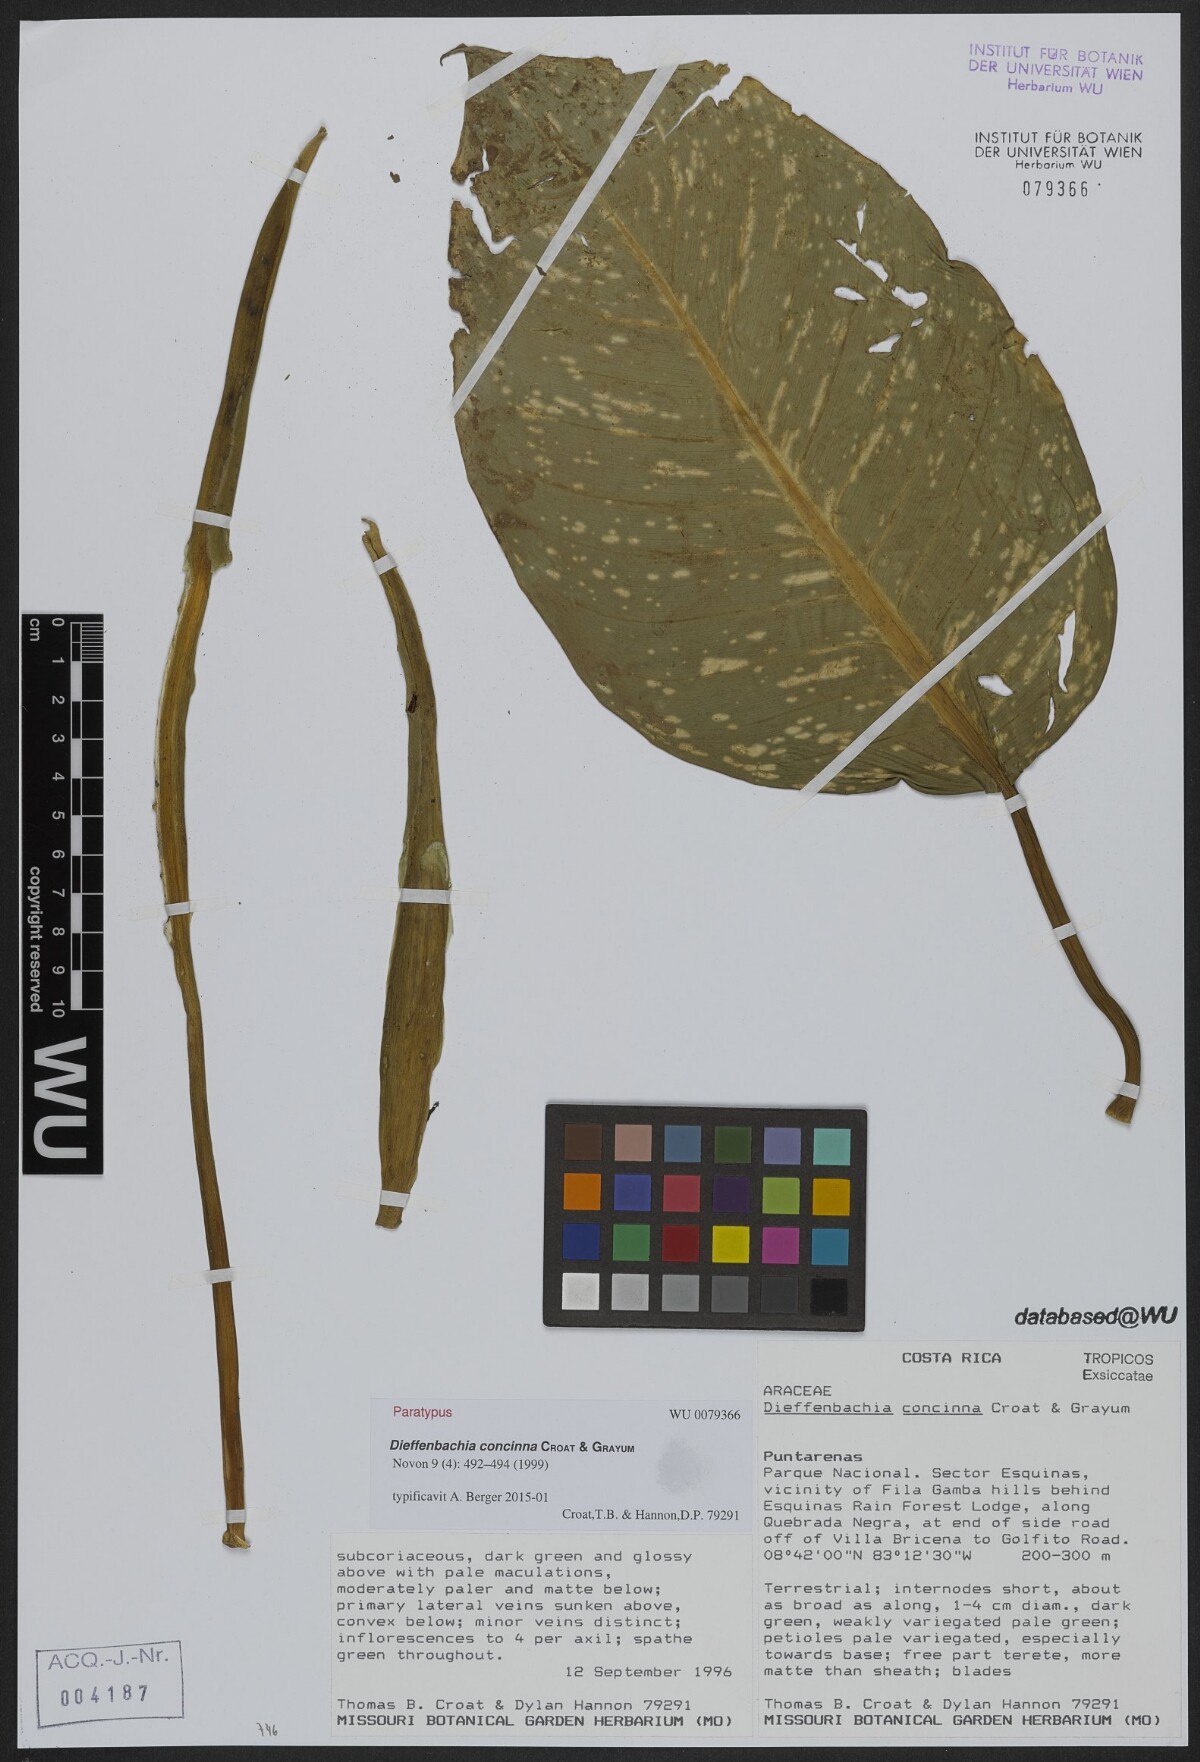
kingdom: Plantae
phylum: Tracheophyta
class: Liliopsida
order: Alismatales
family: Araceae
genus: Dieffenbachia
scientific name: Dieffenbachia concinna
